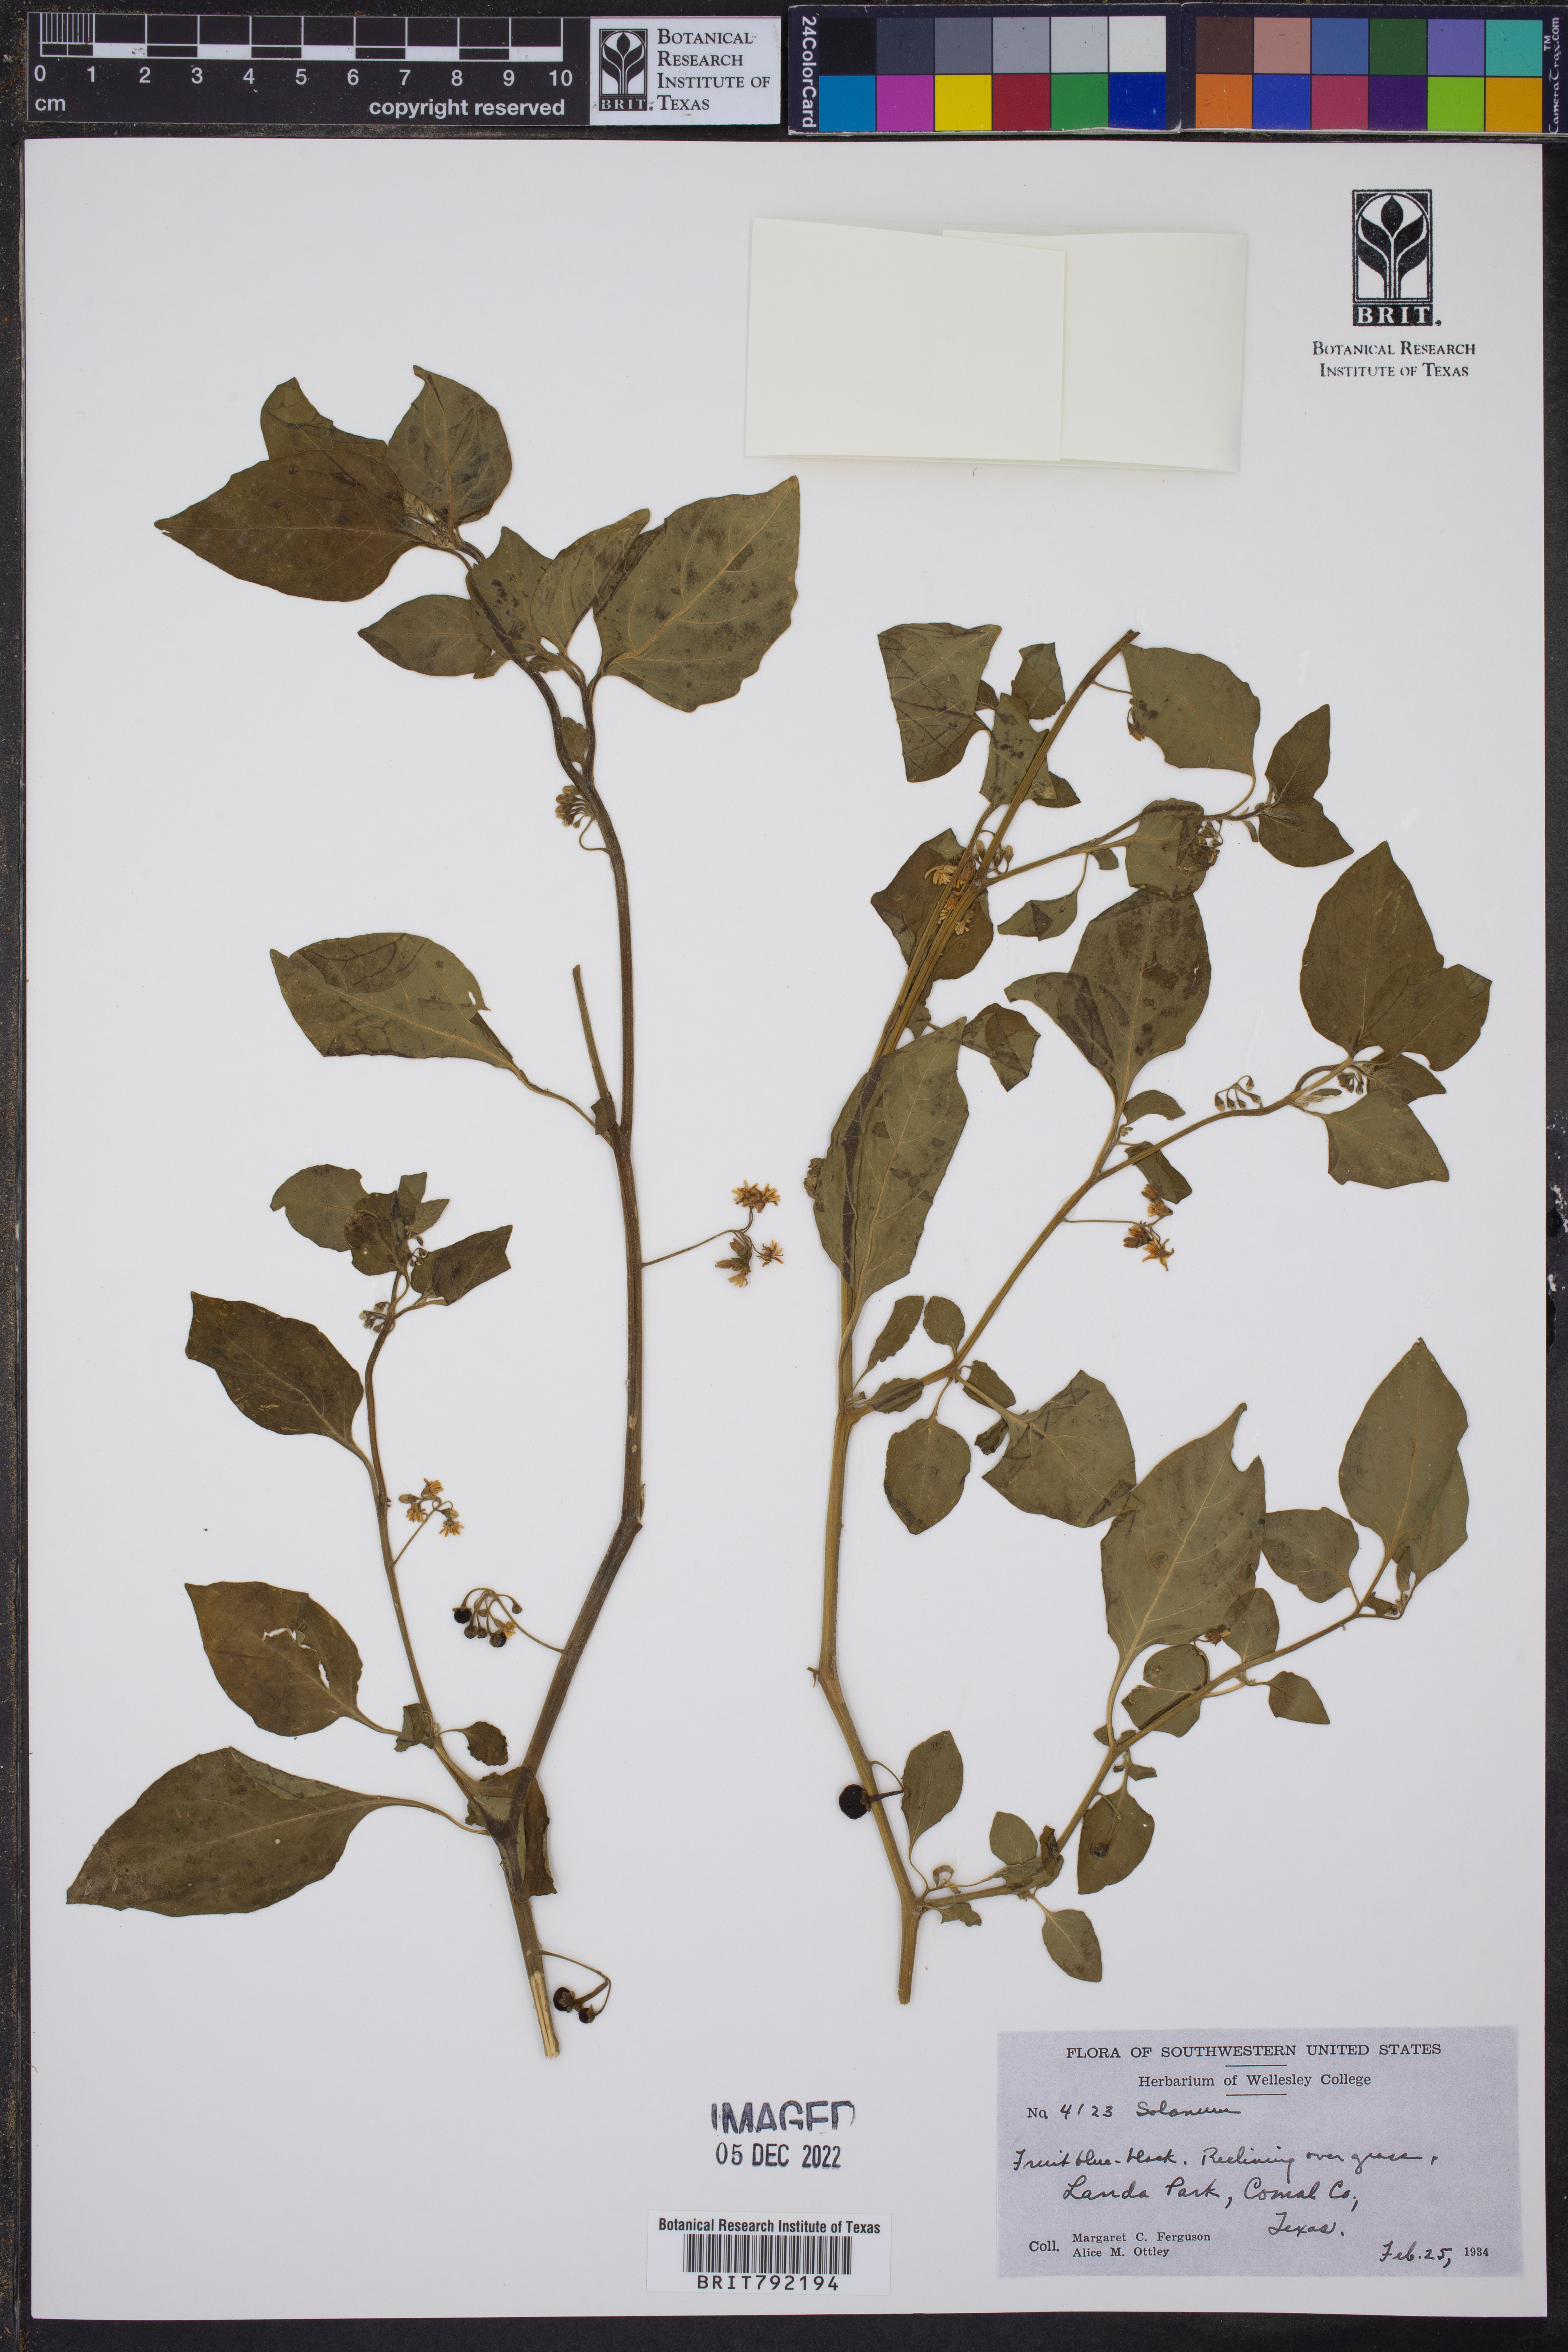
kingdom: Plantae
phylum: Tracheophyta
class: Magnoliopsida
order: Solanales
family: Solanaceae
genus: Solanum
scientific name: Solanum
